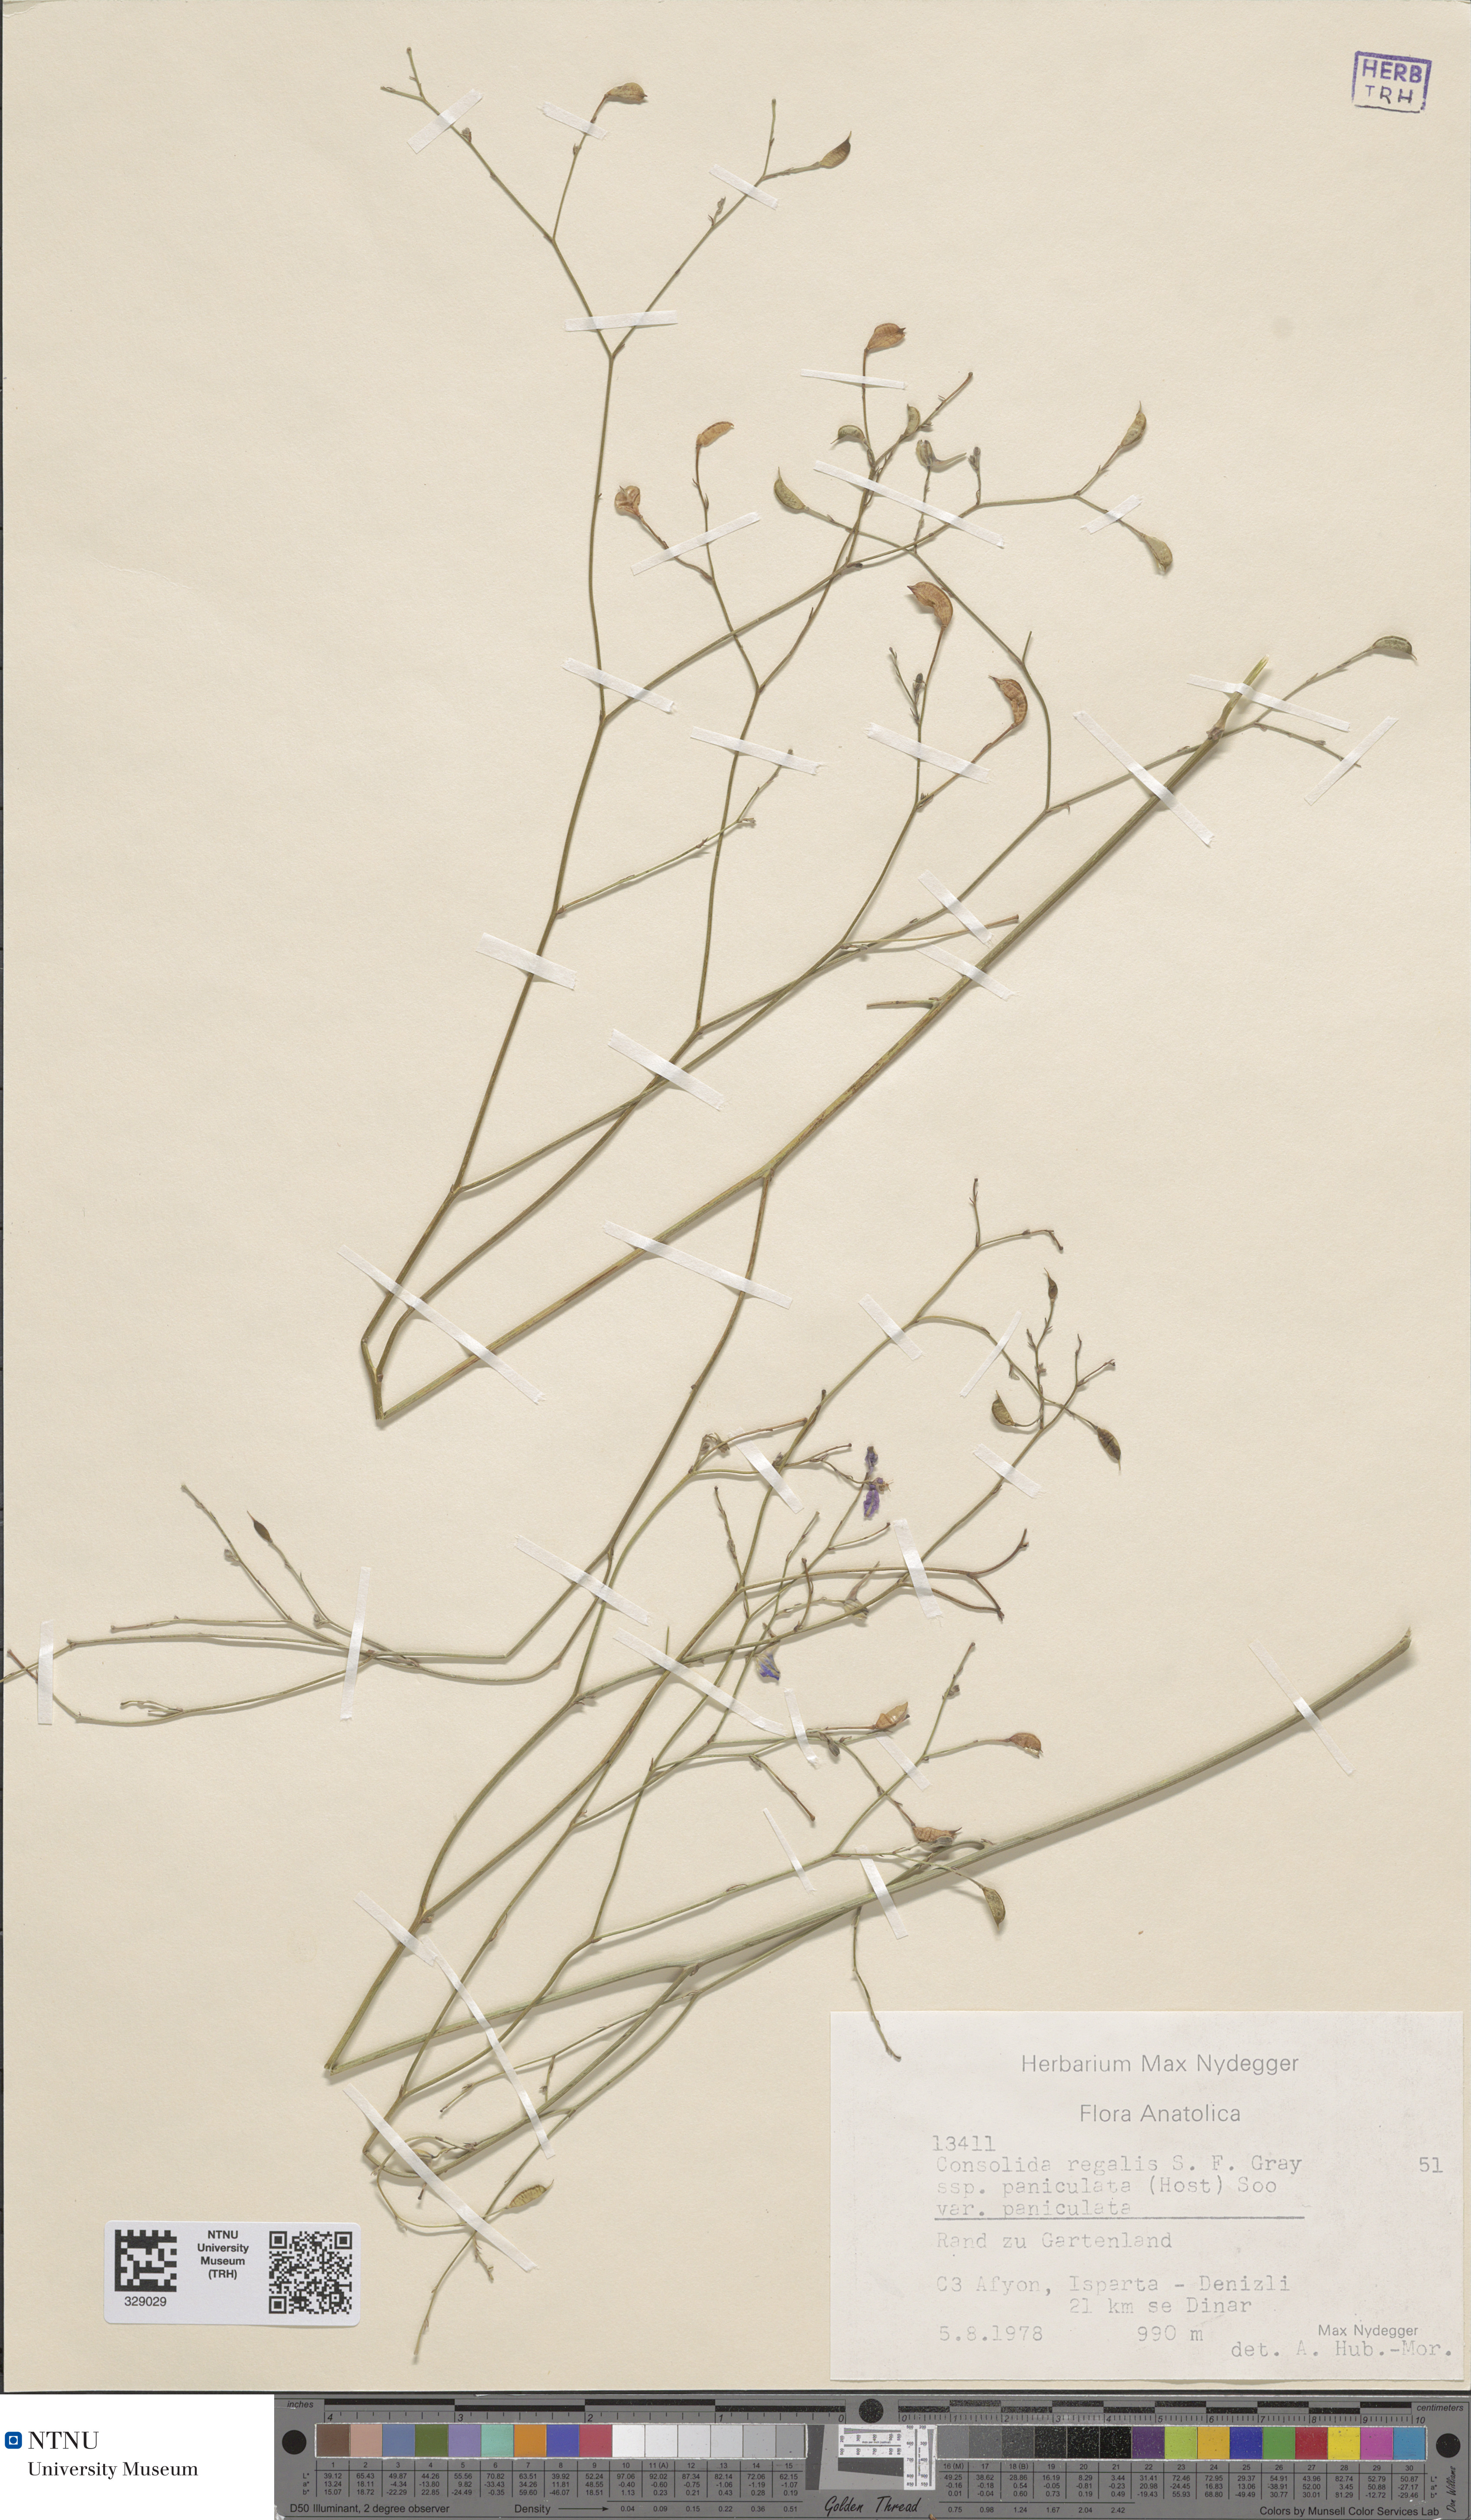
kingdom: Plantae
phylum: Tracheophyta
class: Magnoliopsida
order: Ranunculales
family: Ranunculaceae
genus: Delphinium
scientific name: Delphinium consolida
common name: Branching larkspur
